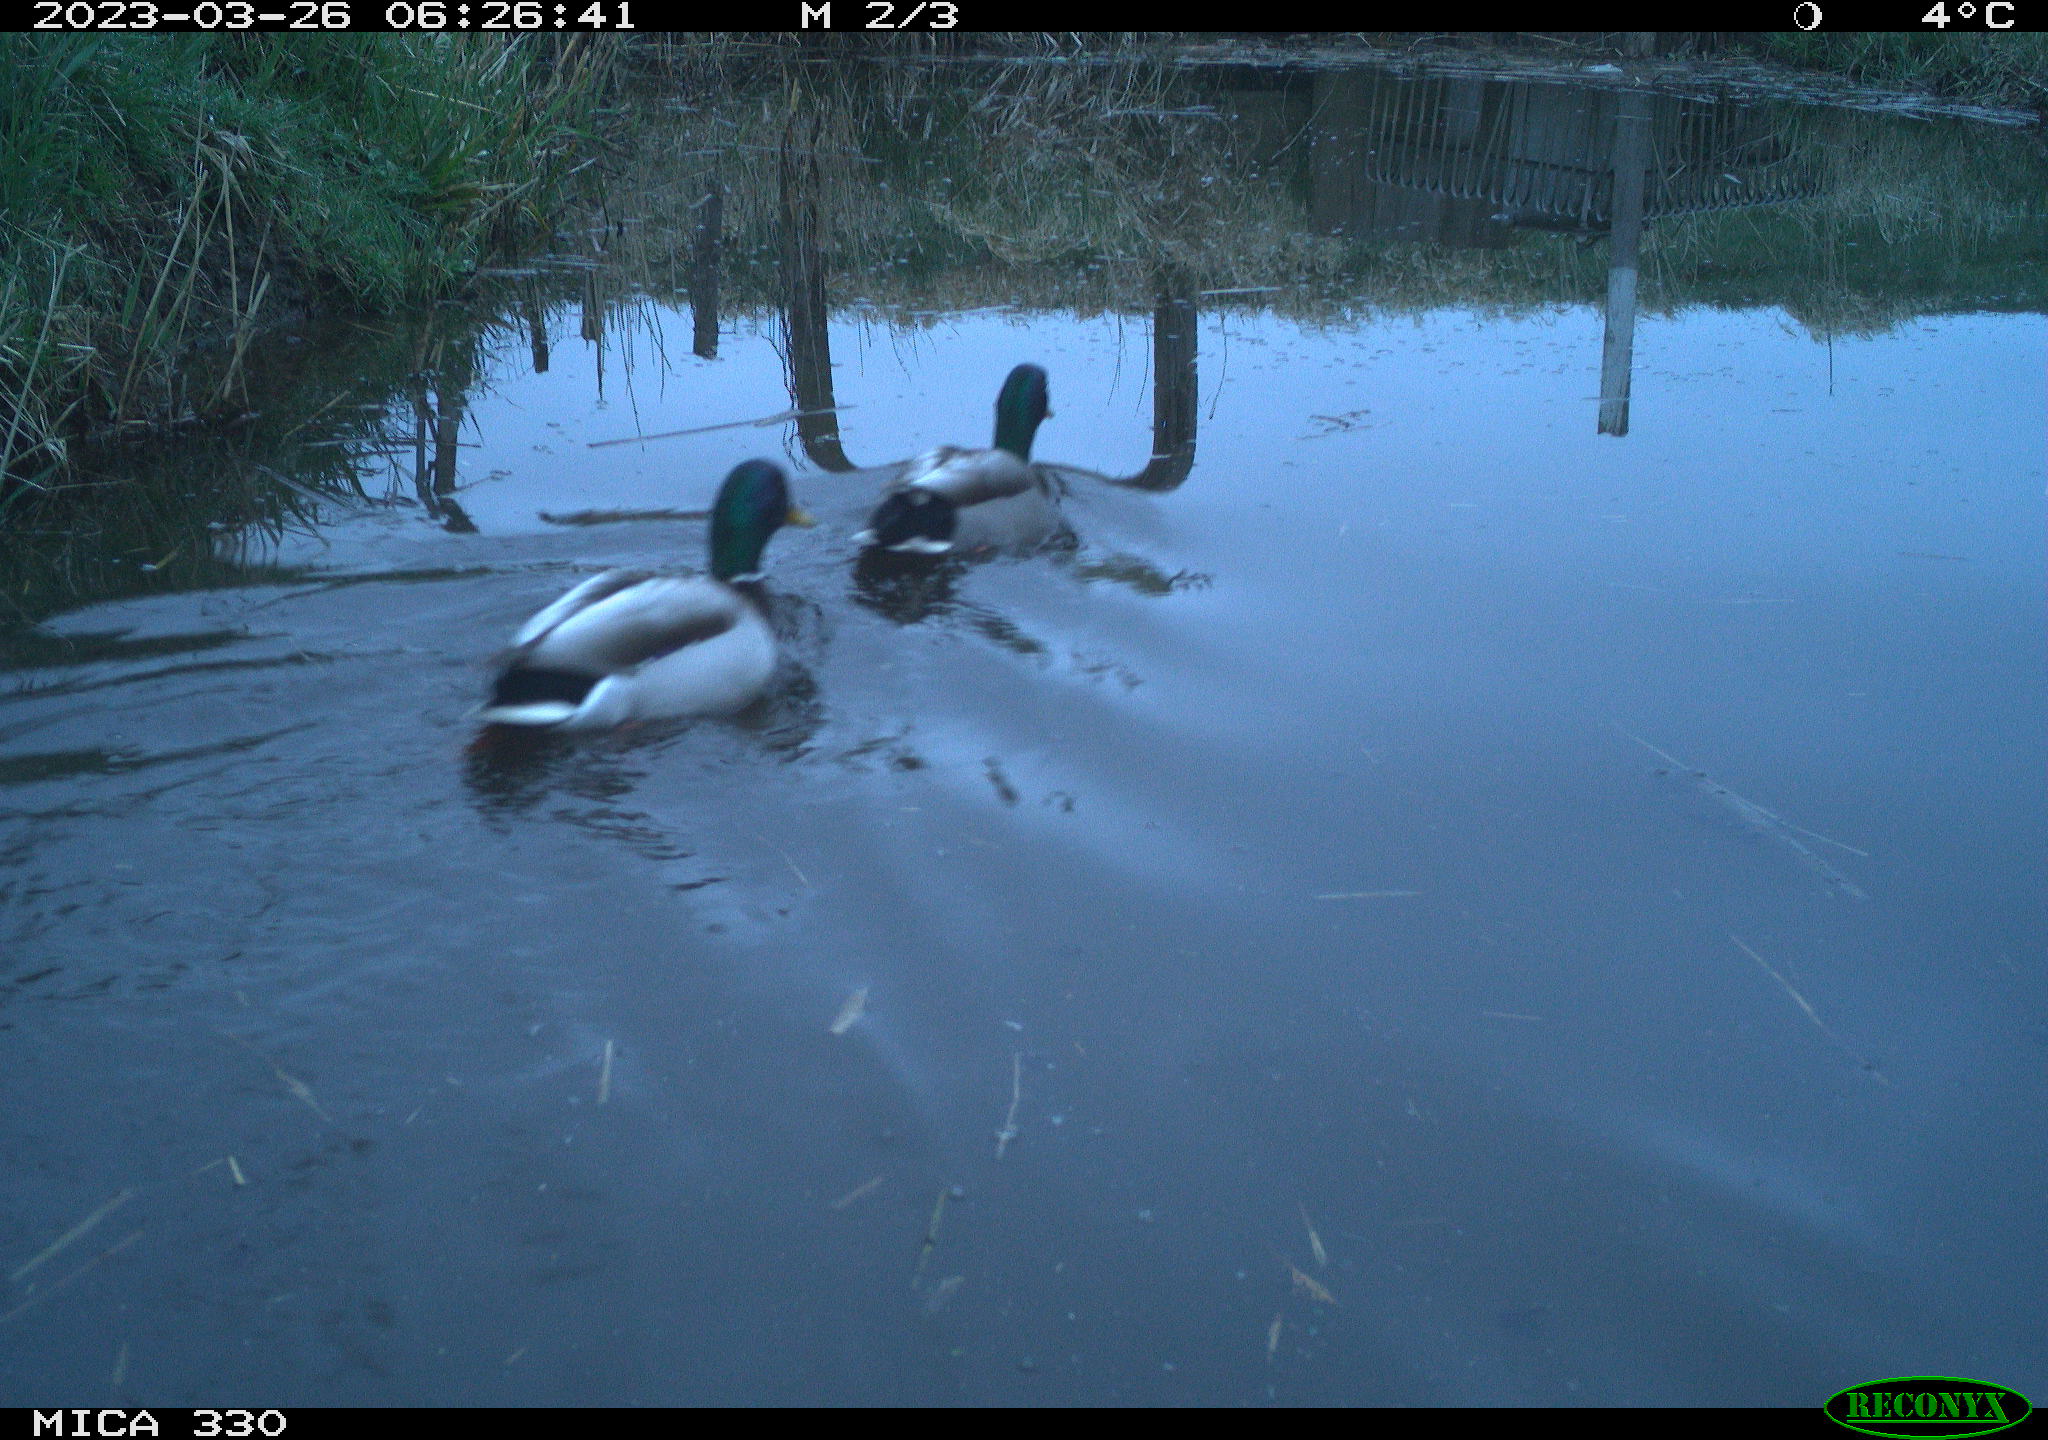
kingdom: Animalia
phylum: Chordata
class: Aves
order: Anseriformes
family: Anatidae
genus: Anas
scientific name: Anas
